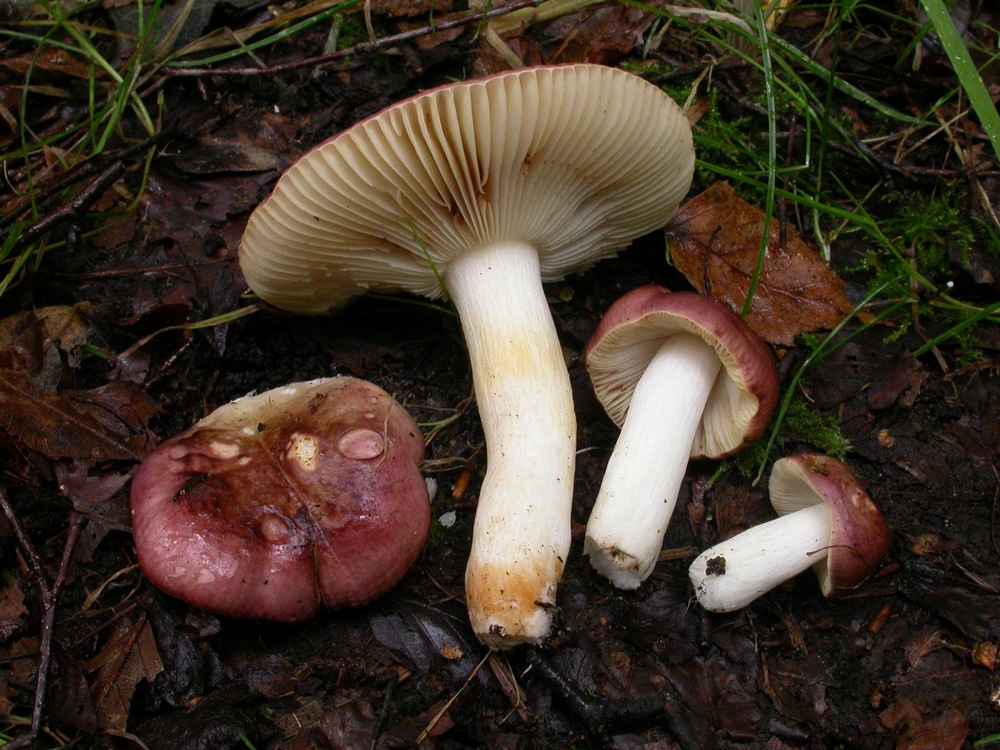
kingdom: Fungi
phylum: Basidiomycota
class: Agaricomycetes
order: Russulales
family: Russulaceae
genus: Russula
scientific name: Russula versicolor
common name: foranderlig skørhat
